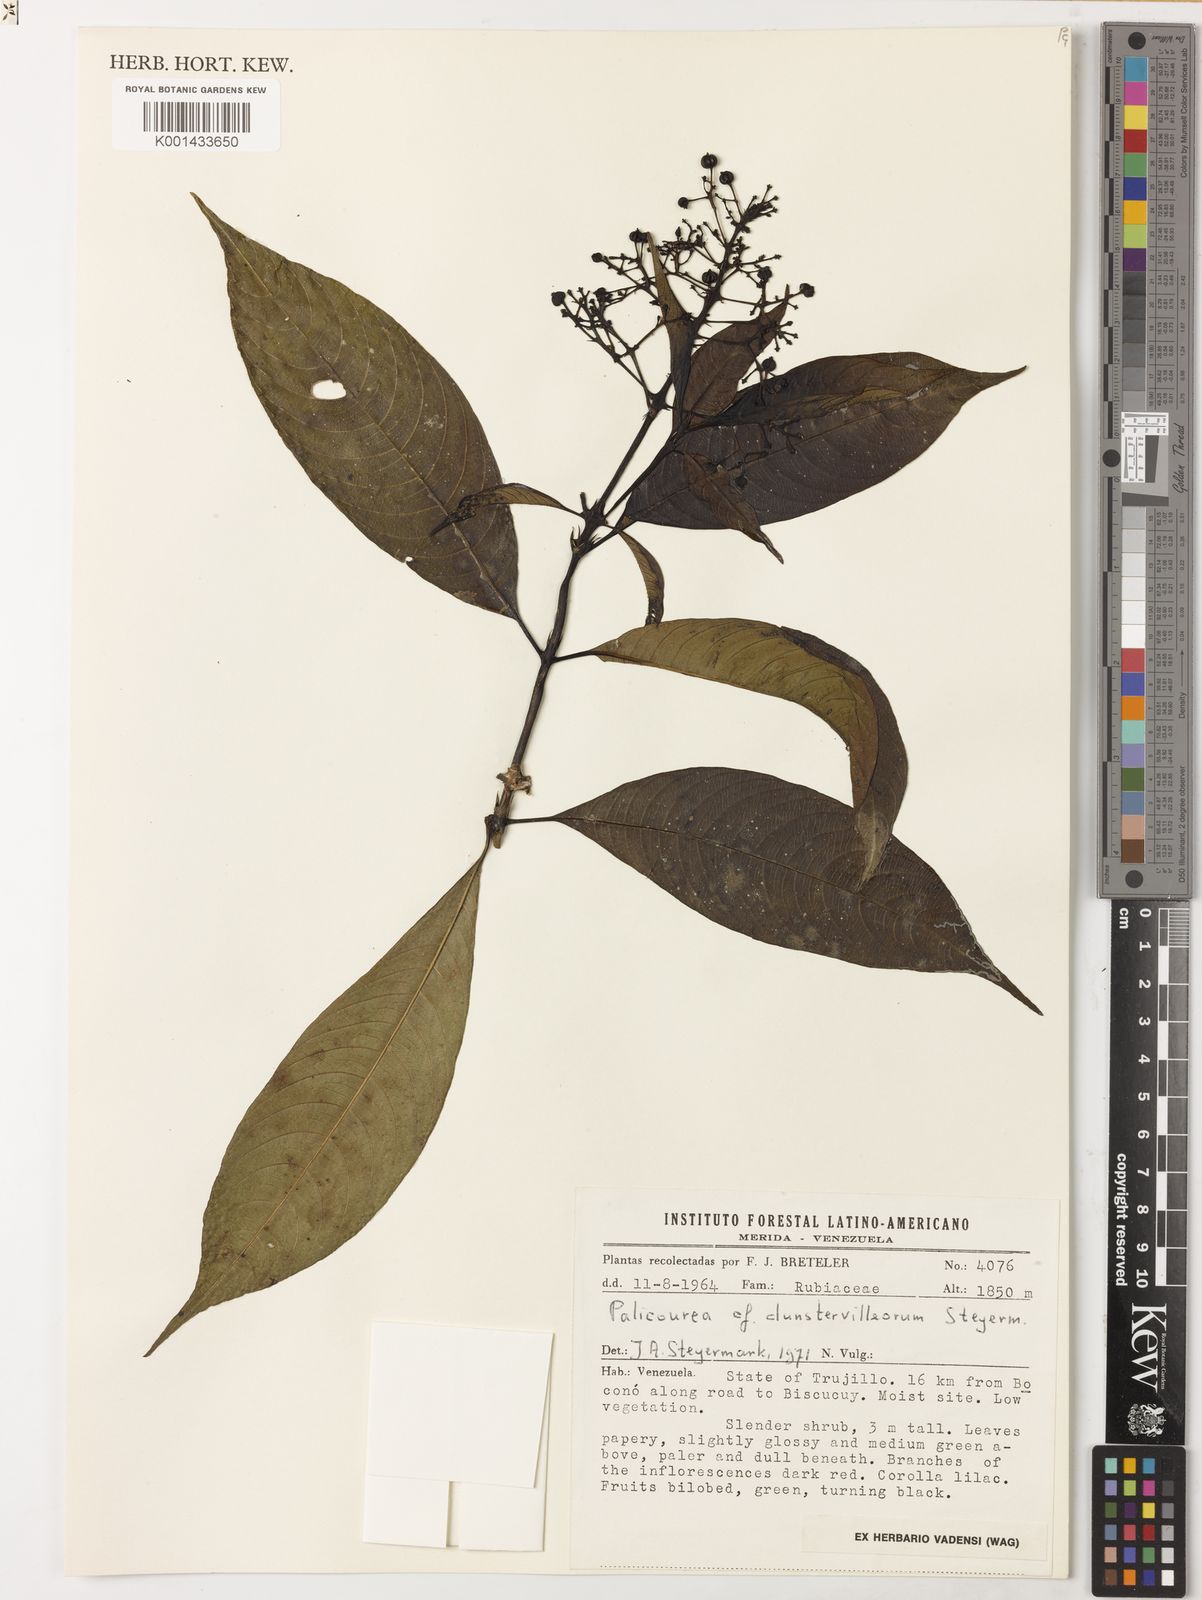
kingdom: Plantae
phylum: Tracheophyta
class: Magnoliopsida
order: Gentianales
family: Rubiaceae
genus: Palicourea
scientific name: Palicourea dunstervilleorum
